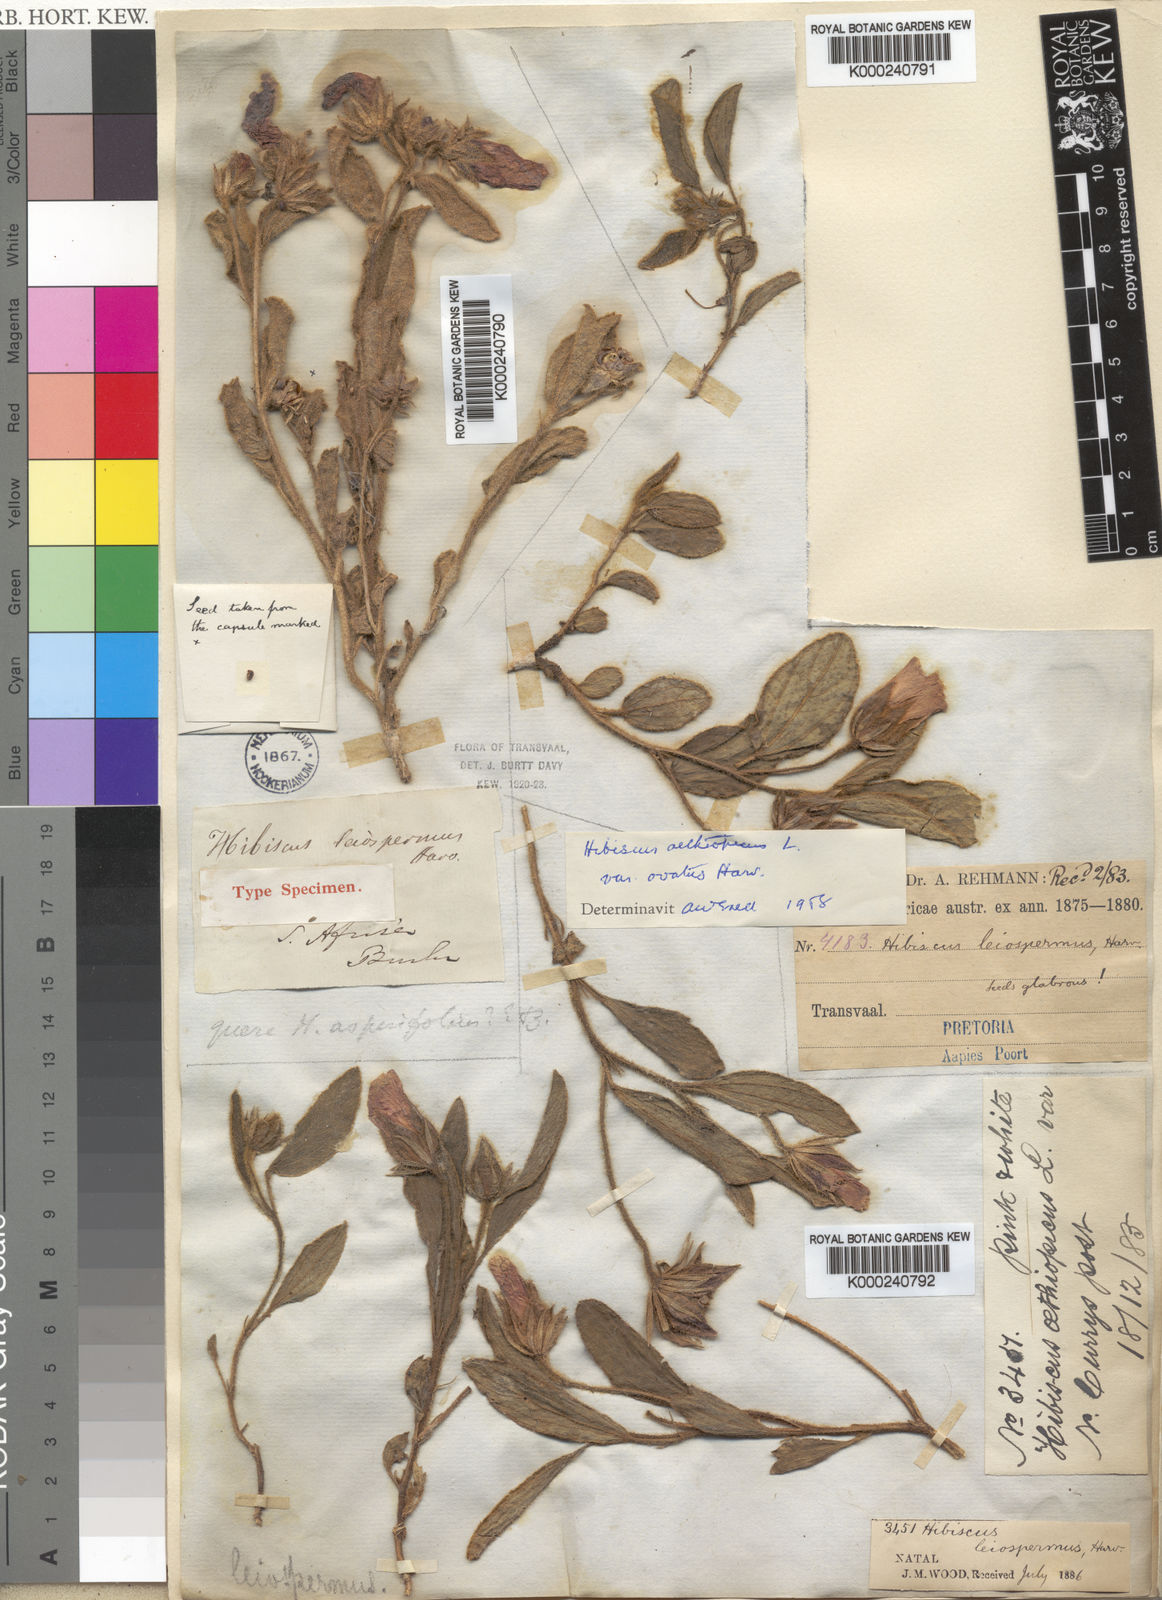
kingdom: Plantae
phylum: Tracheophyta
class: Magnoliopsida
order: Malvales
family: Malvaceae
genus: Hibiscus
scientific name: Hibiscus aethiopicus
